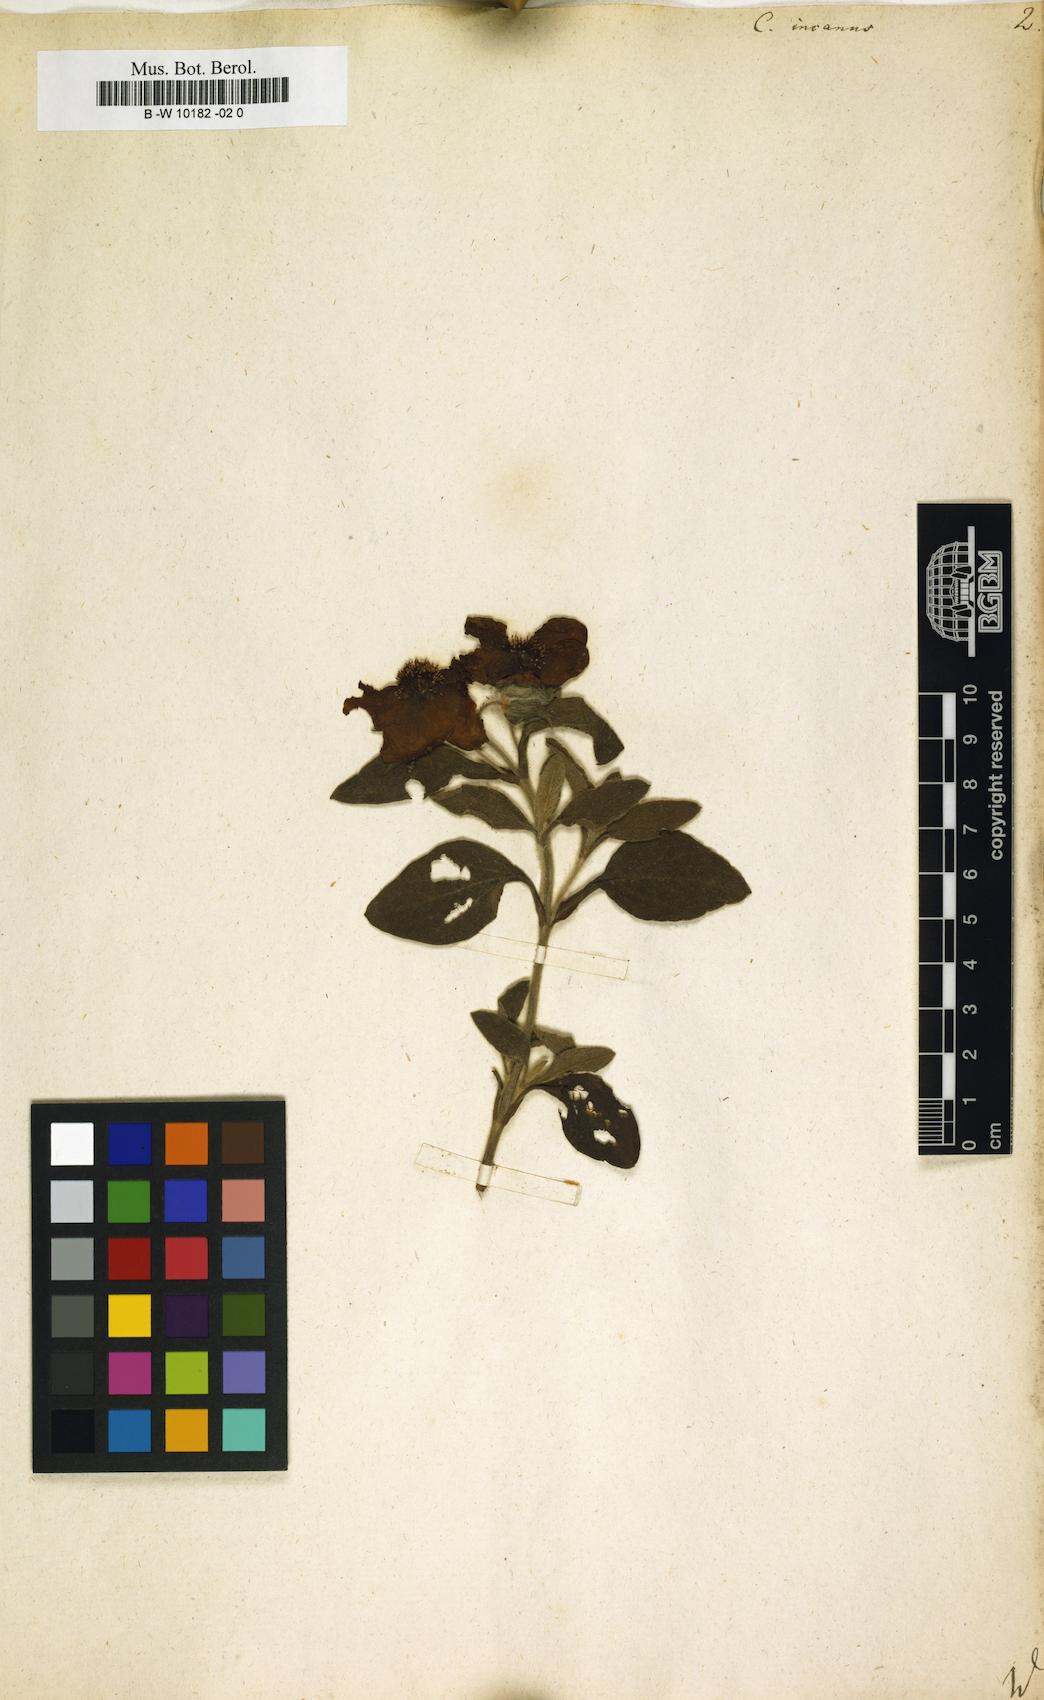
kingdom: Plantae
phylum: Tracheophyta
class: Magnoliopsida
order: Malvales
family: Cistaceae
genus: Cistus
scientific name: Cistus incanus
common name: Hairy rockrose
